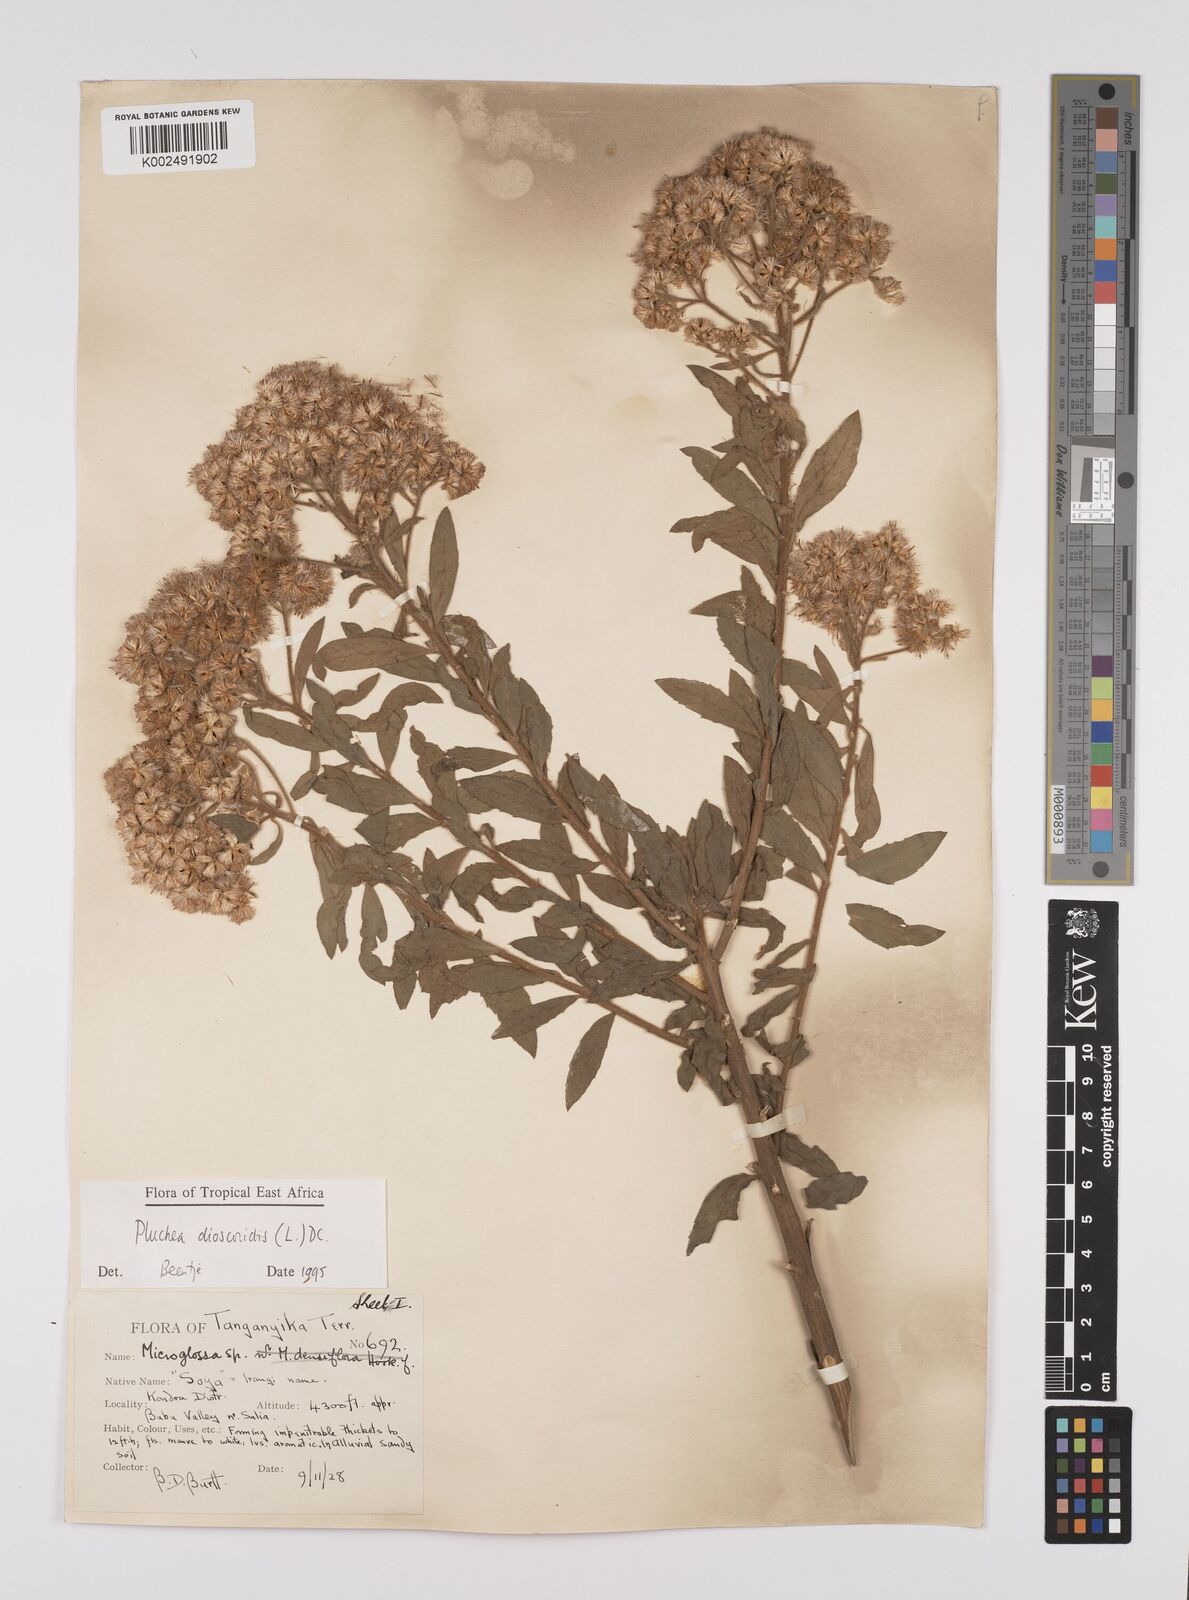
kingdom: Plantae
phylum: Tracheophyta
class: Magnoliopsida
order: Asterales
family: Asteraceae
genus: Pluchea
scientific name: Pluchea dioscoridis
